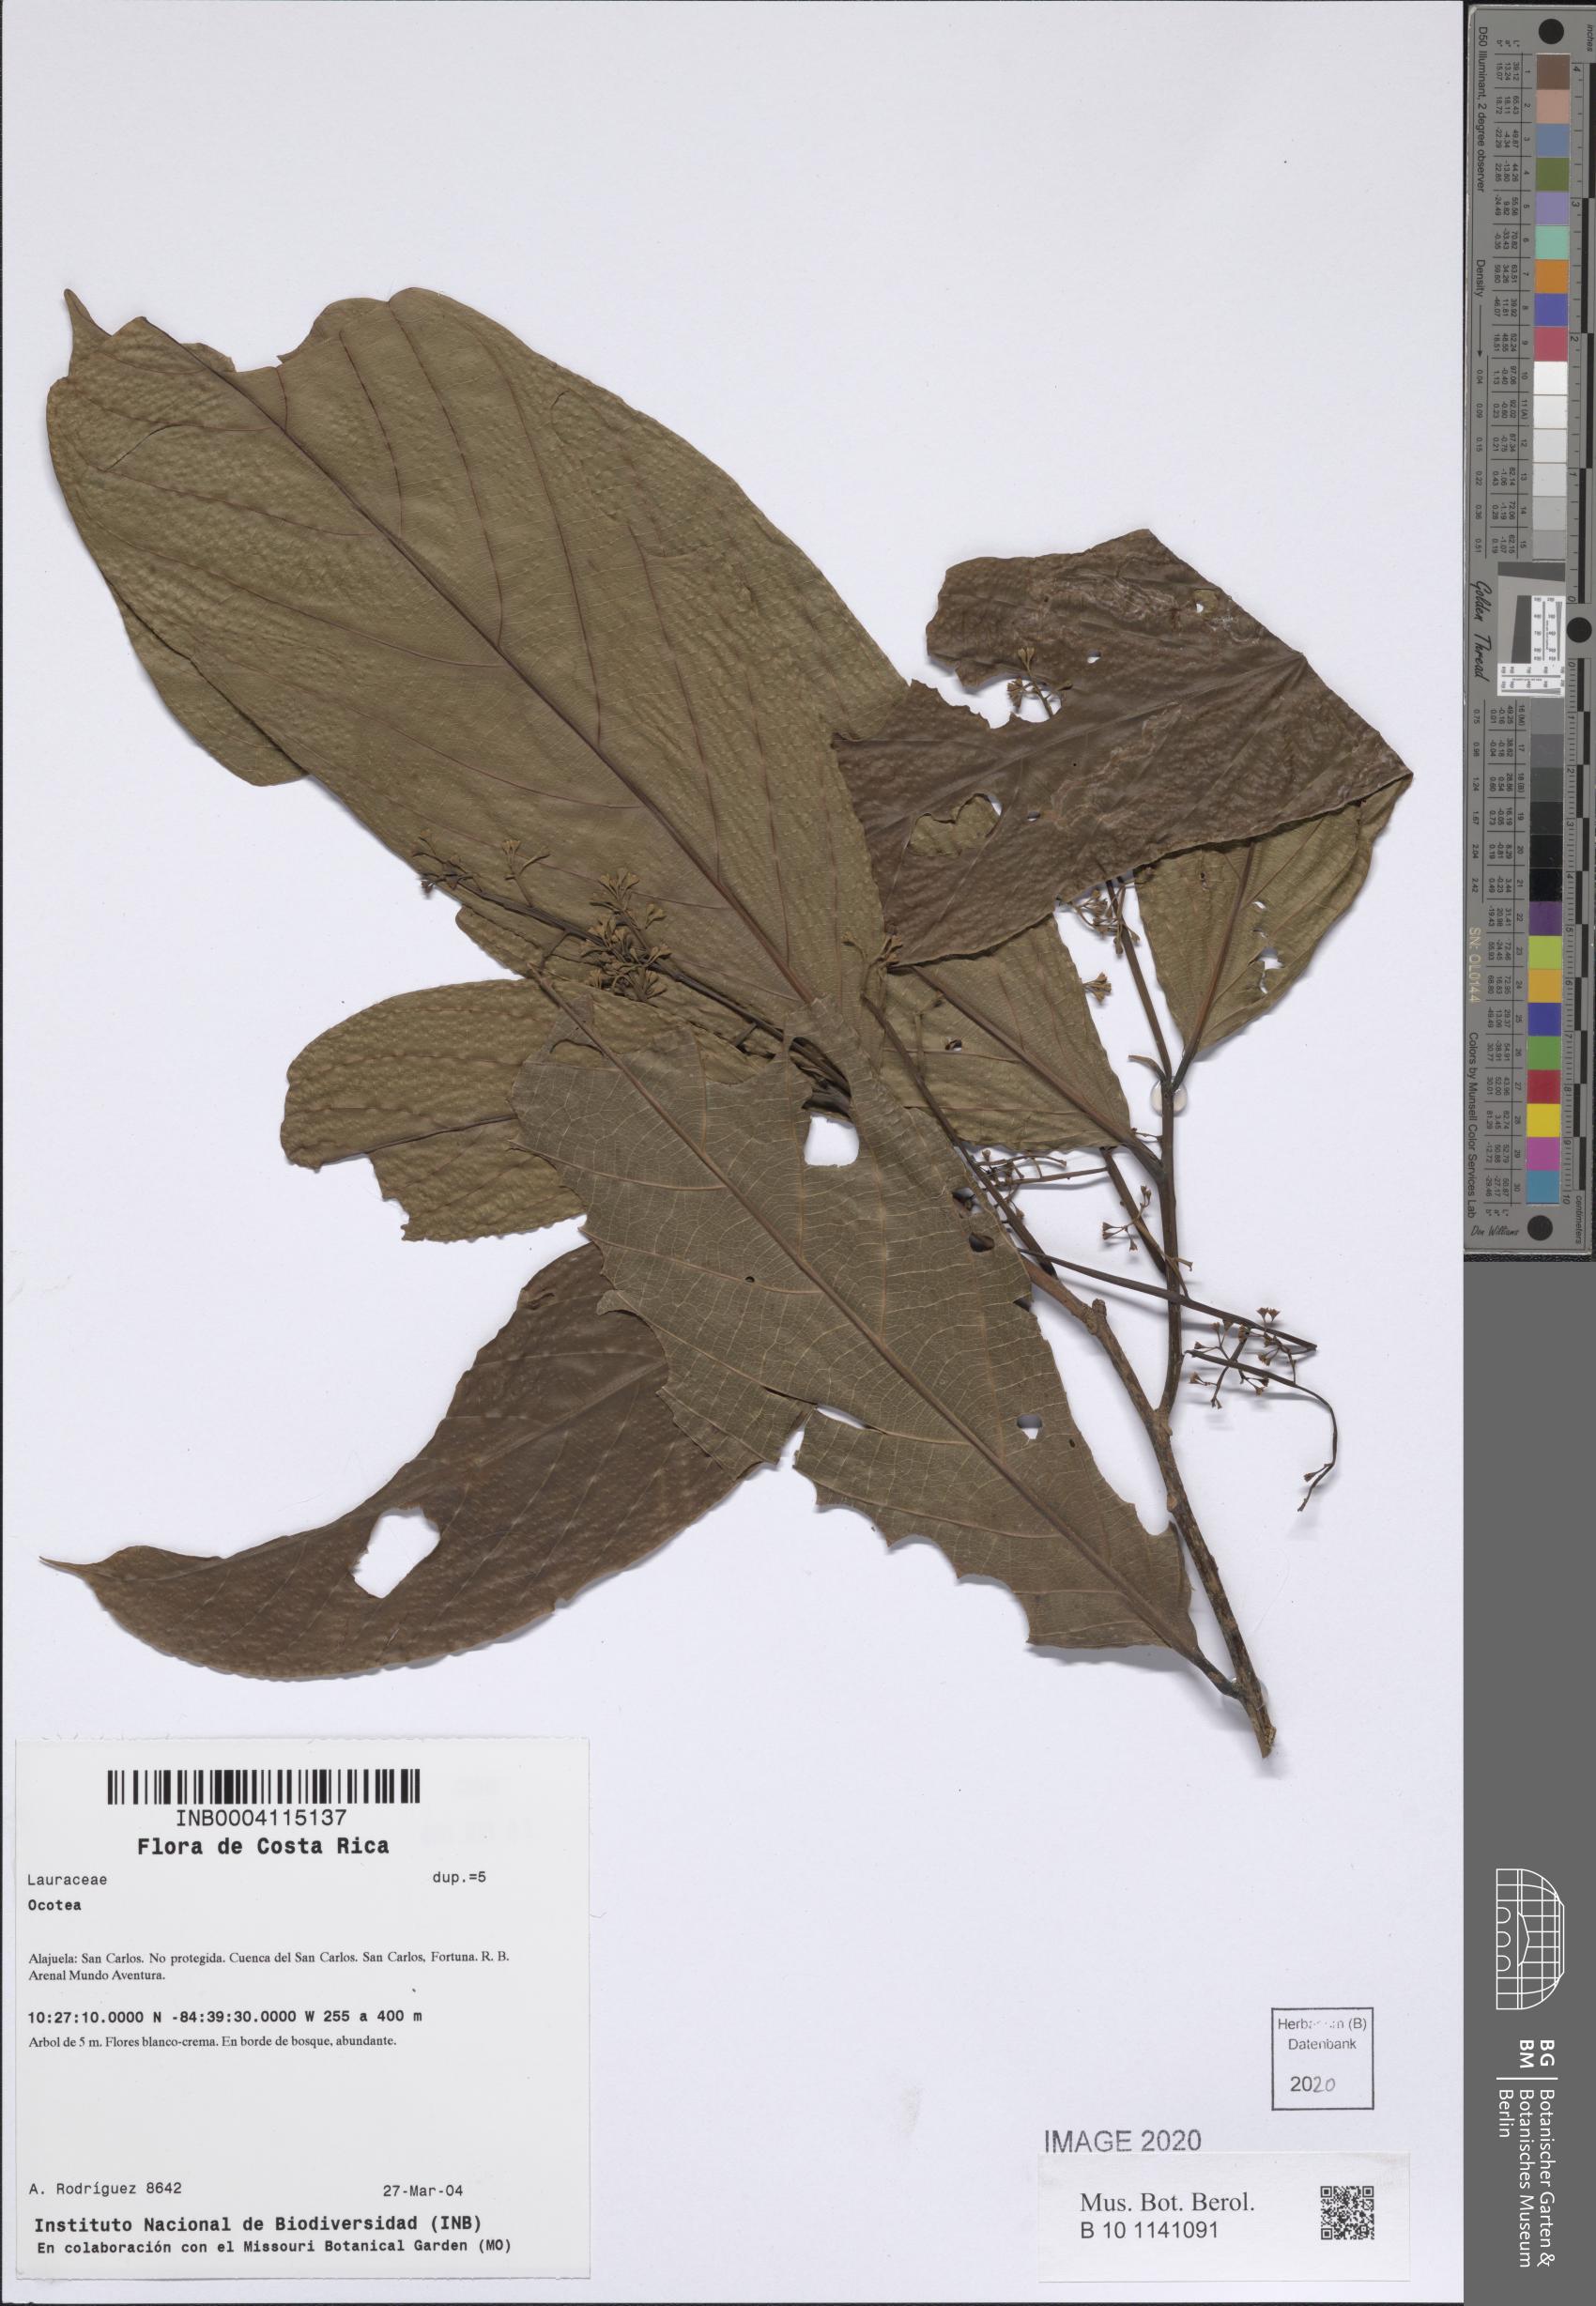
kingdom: Plantae
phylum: Tracheophyta
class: Magnoliopsida
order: Laurales
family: Lauraceae
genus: Ocotea
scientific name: Ocotea
